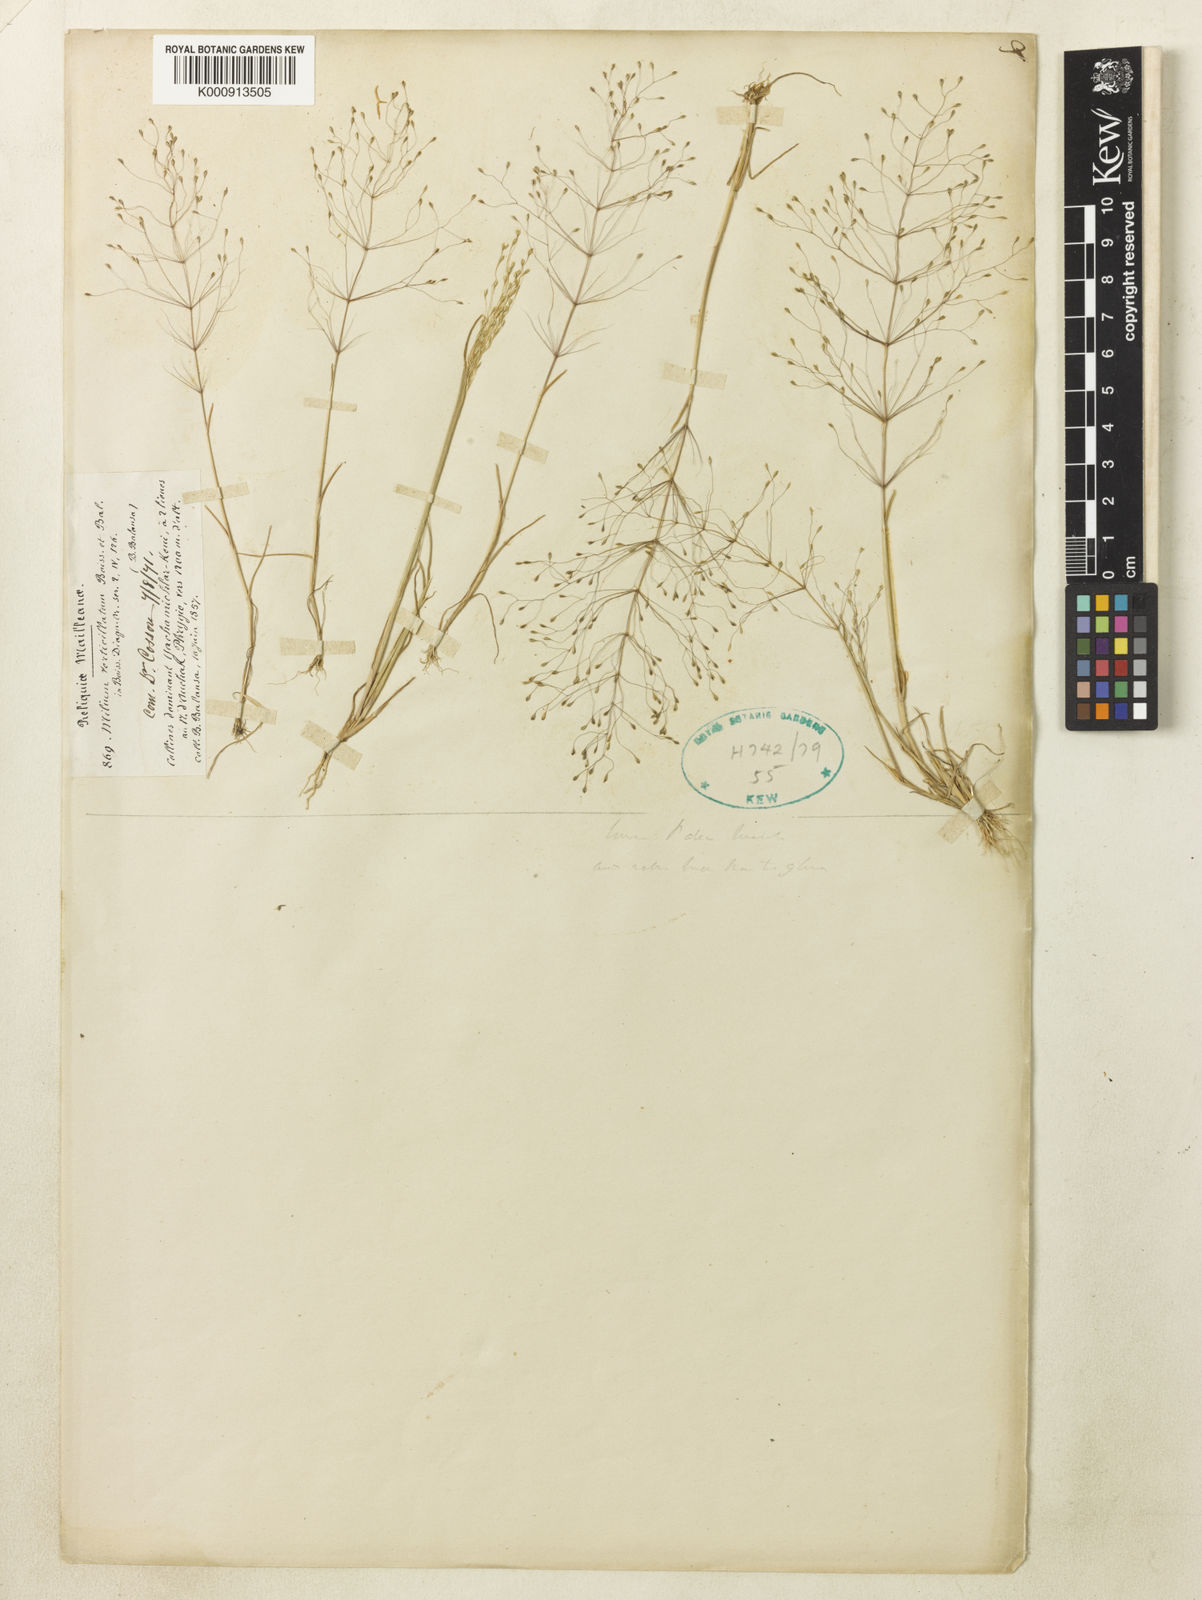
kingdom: Plantae
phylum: Tracheophyta
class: Liliopsida
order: Poales
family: Poaceae
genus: Colpodium
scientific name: Colpodium verticillatum
